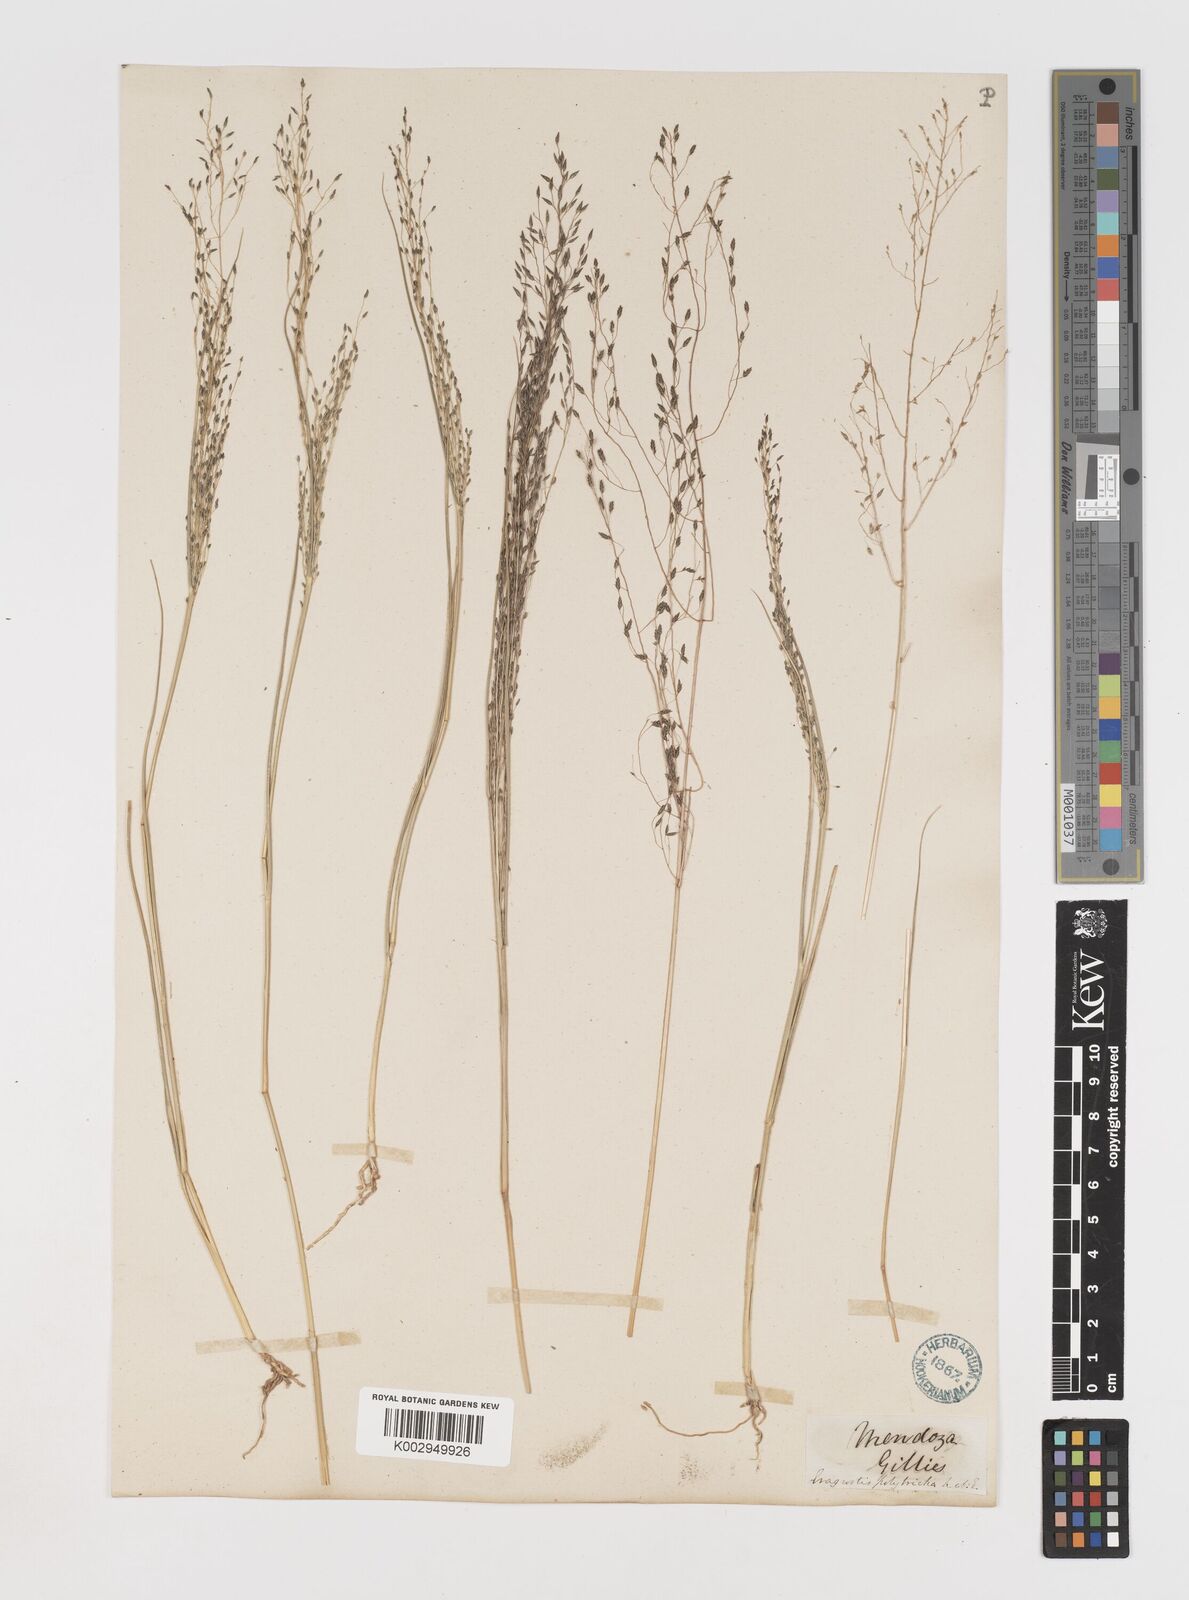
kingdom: Plantae
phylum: Tracheophyta
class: Liliopsida
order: Poales
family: Poaceae
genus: Eragrostis
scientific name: Eragrostis lugens
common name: Mourning love grass
